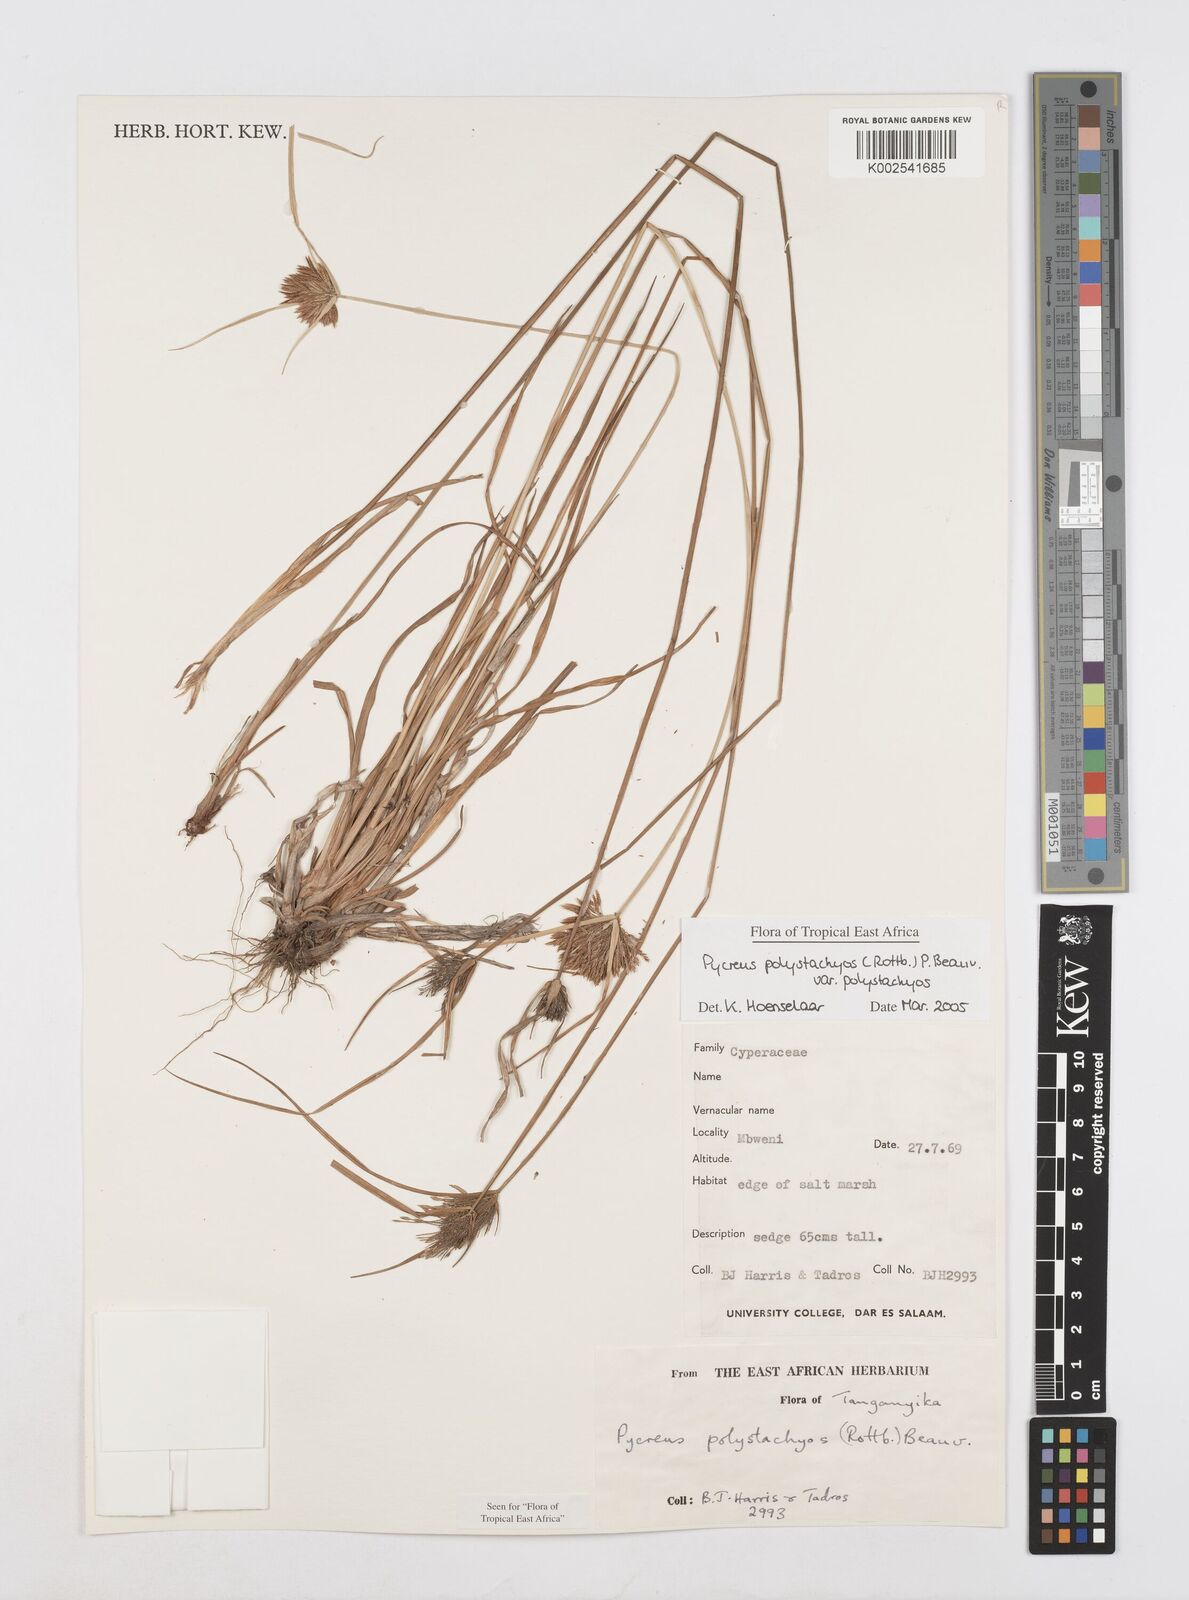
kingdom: Plantae
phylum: Tracheophyta
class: Liliopsida
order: Poales
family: Cyperaceae
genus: Cyperus
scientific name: Cyperus polystachyos
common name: Bunchy flat sedge
